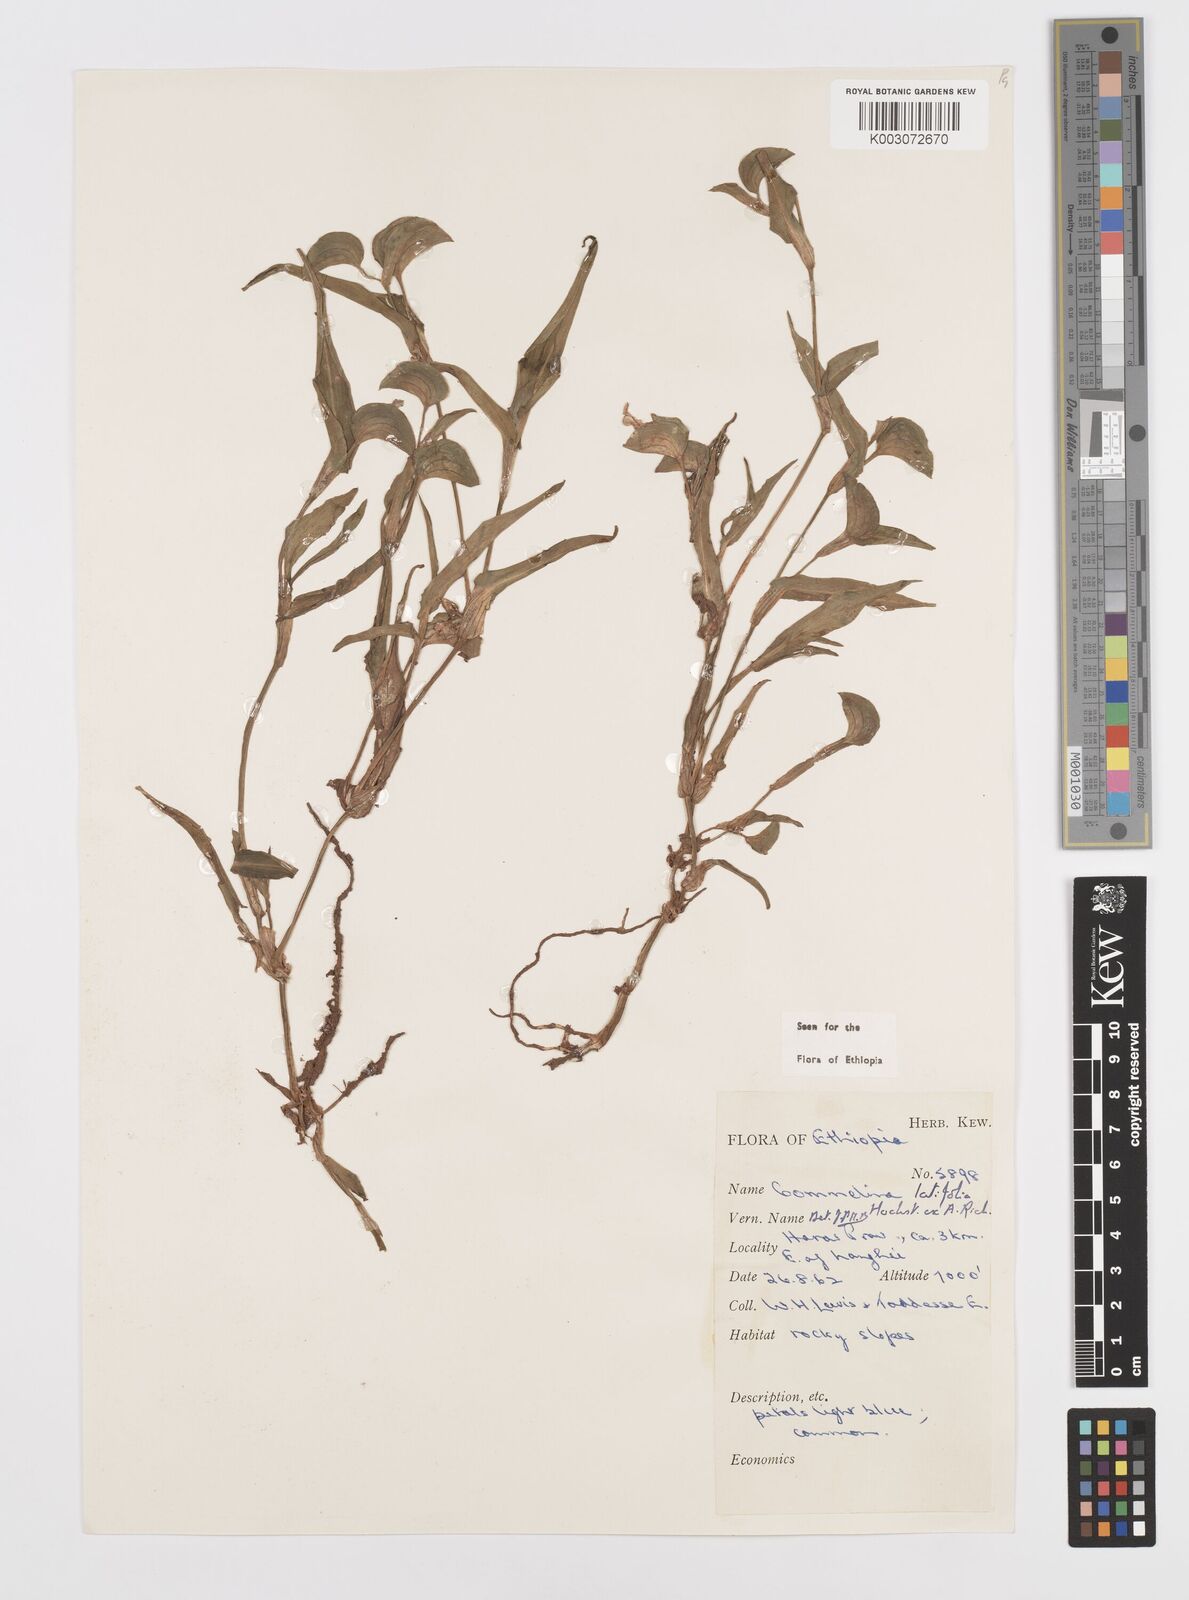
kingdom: Plantae
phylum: Tracheophyta
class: Liliopsida
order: Commelinales
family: Commelinaceae
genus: Commelina
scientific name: Commelina imberbis
